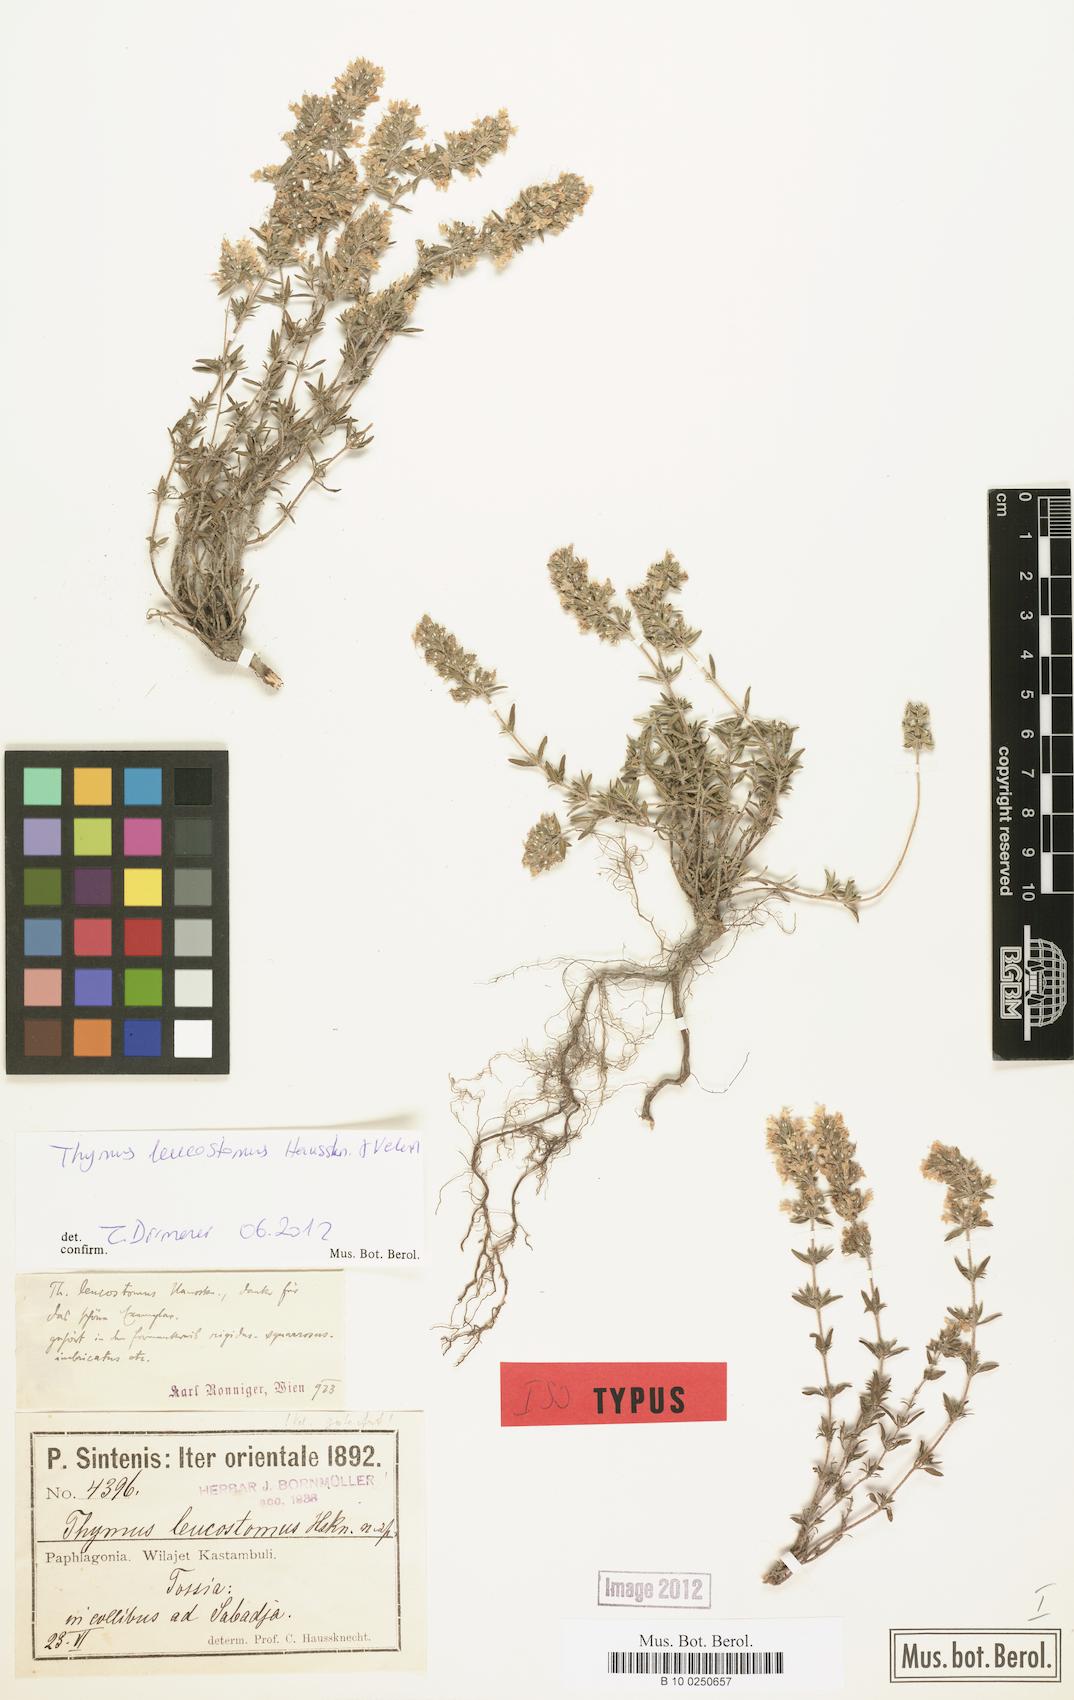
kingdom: Plantae
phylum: Tracheophyta
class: Magnoliopsida
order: Lamiales
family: Lamiaceae
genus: Thymus
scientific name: Thymus leucostomus
